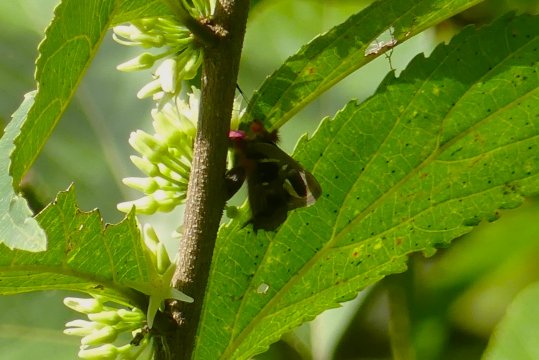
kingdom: Animalia
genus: Anteros
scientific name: Anteros renaldus
